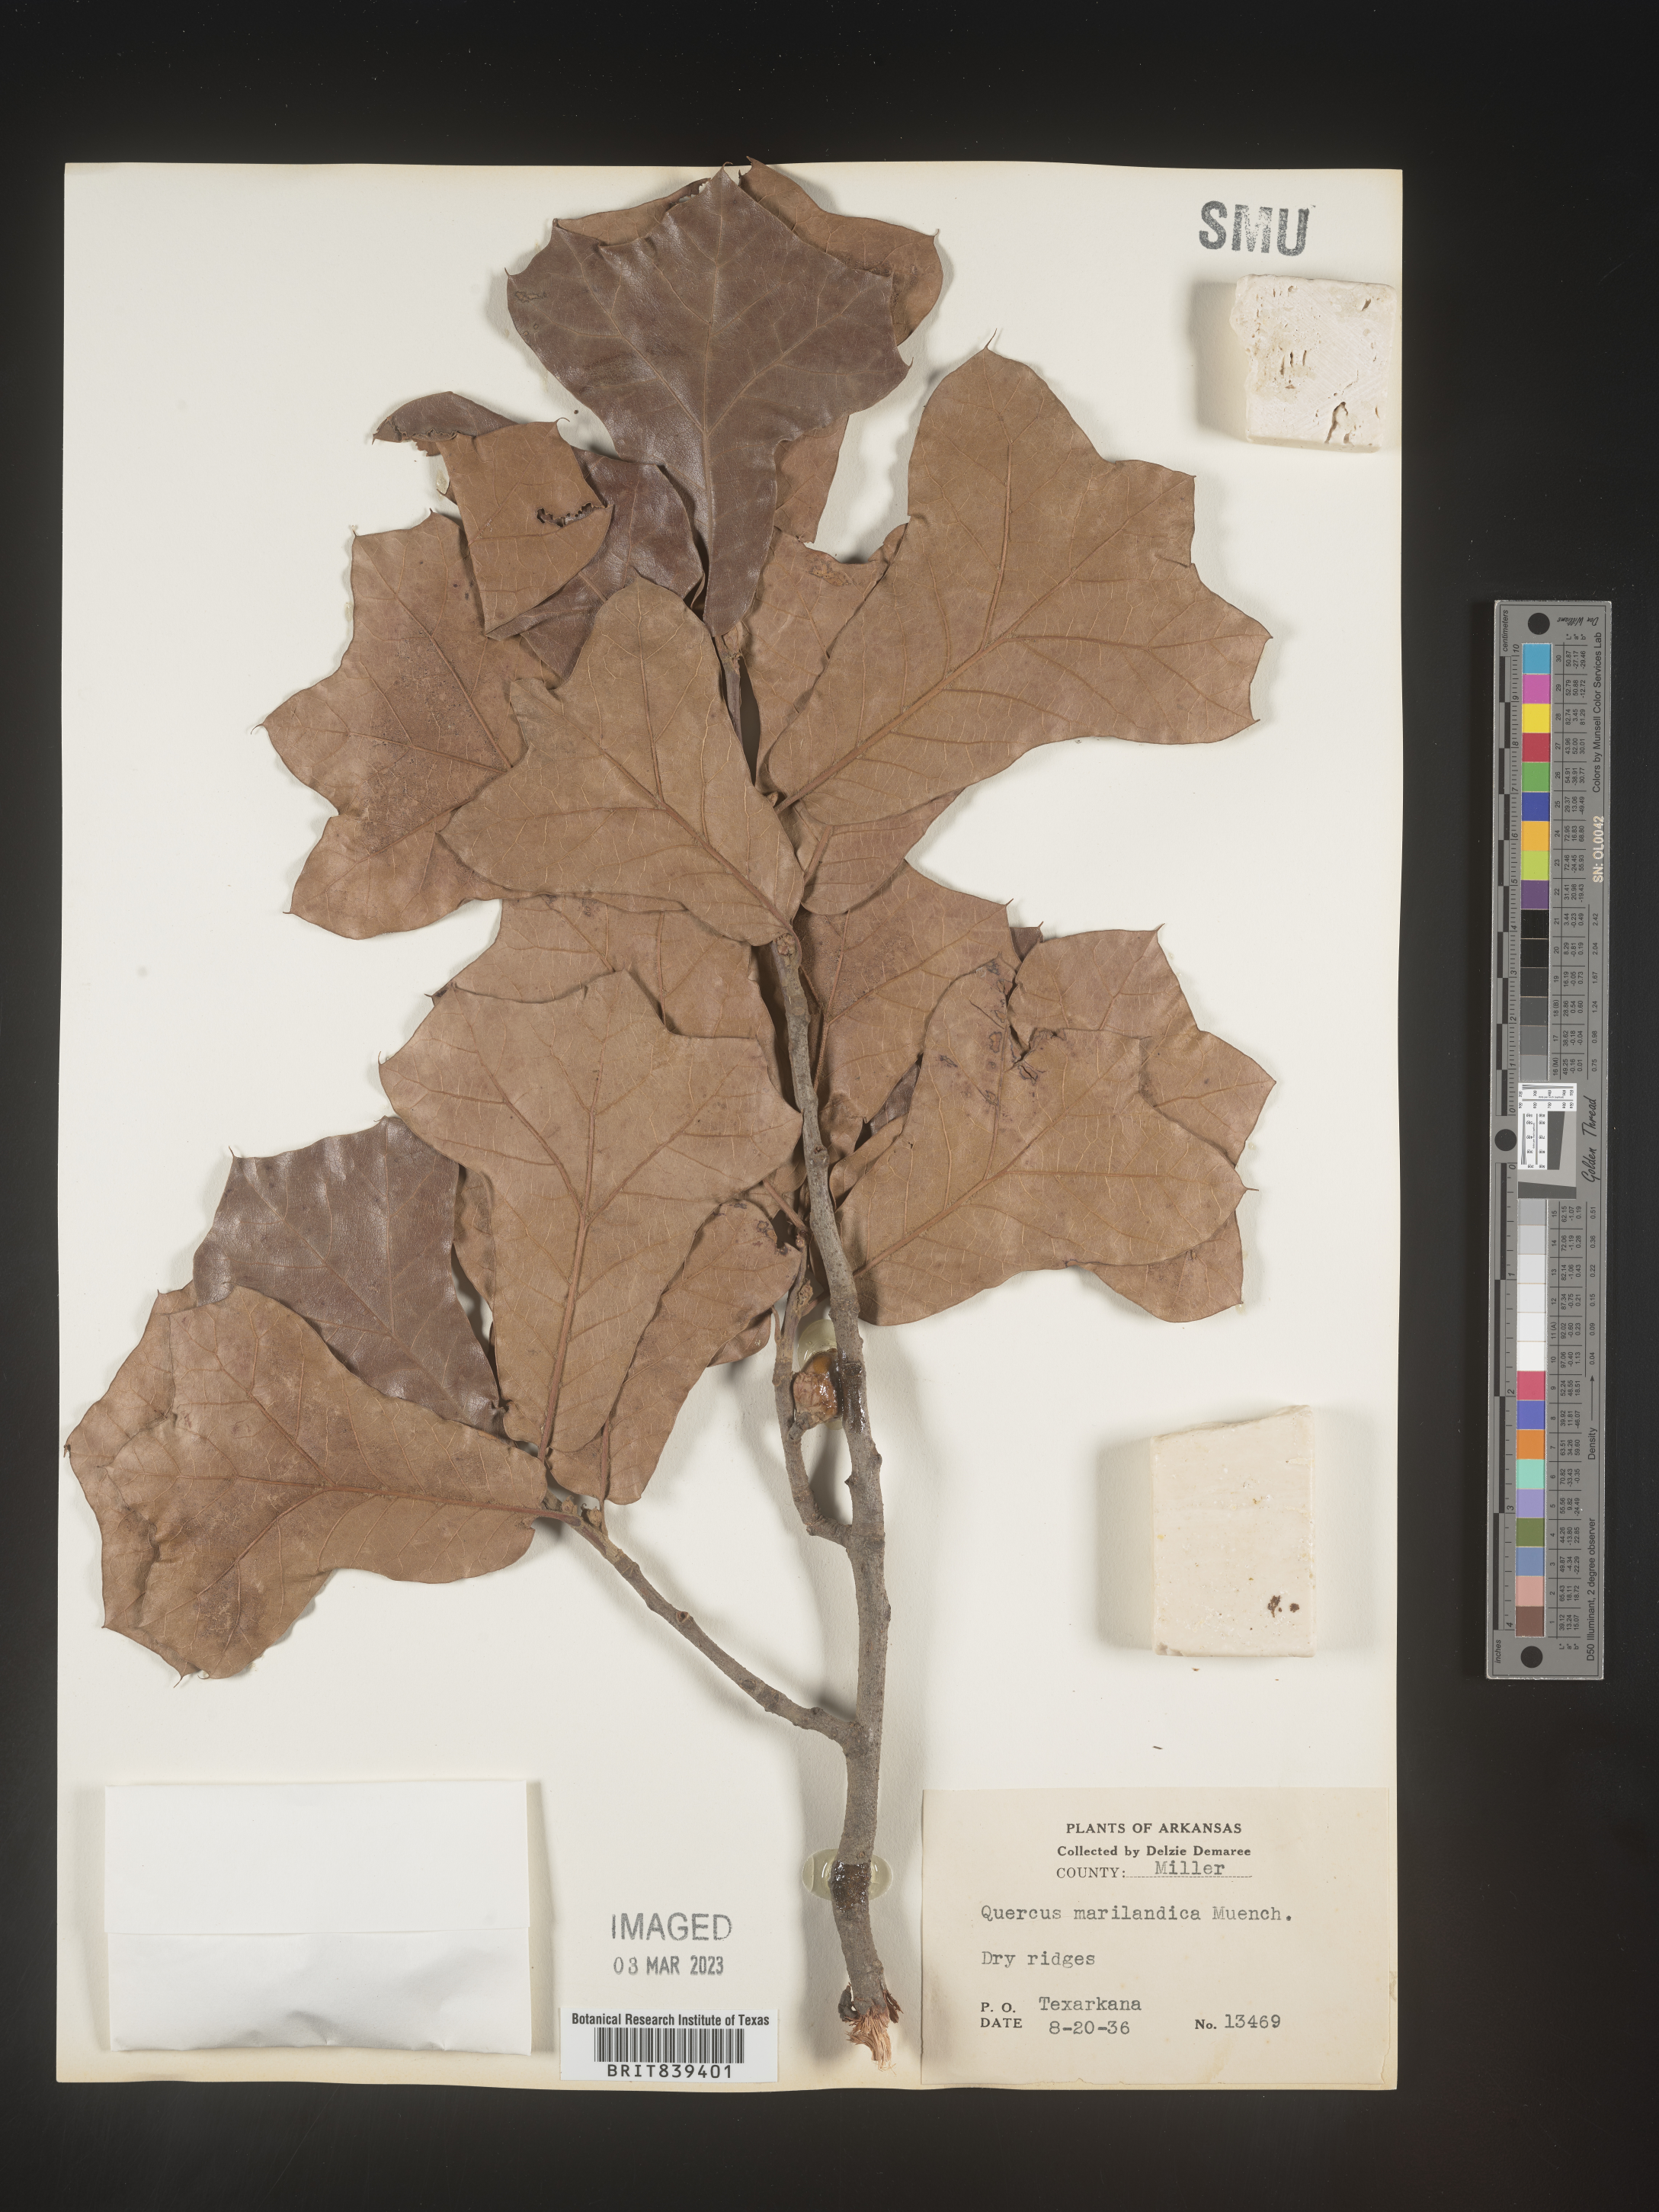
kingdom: Plantae
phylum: Tracheophyta
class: Magnoliopsida
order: Fagales
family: Fagaceae
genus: Quercus
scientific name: Quercus marilandica
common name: Blackjack oak
